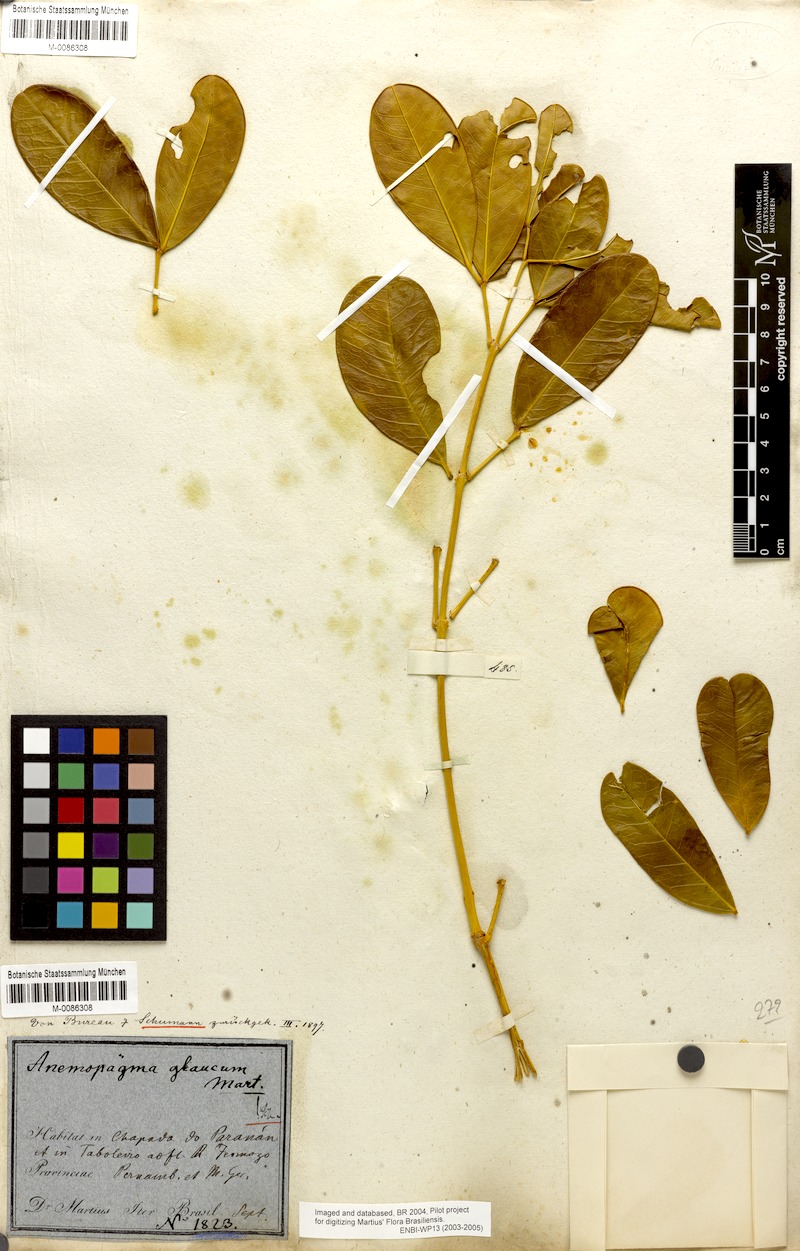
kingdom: Plantae
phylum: Tracheophyta
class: Magnoliopsida
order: Lamiales
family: Bignoniaceae
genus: Anemopaegma
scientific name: Anemopaegma glaucum
